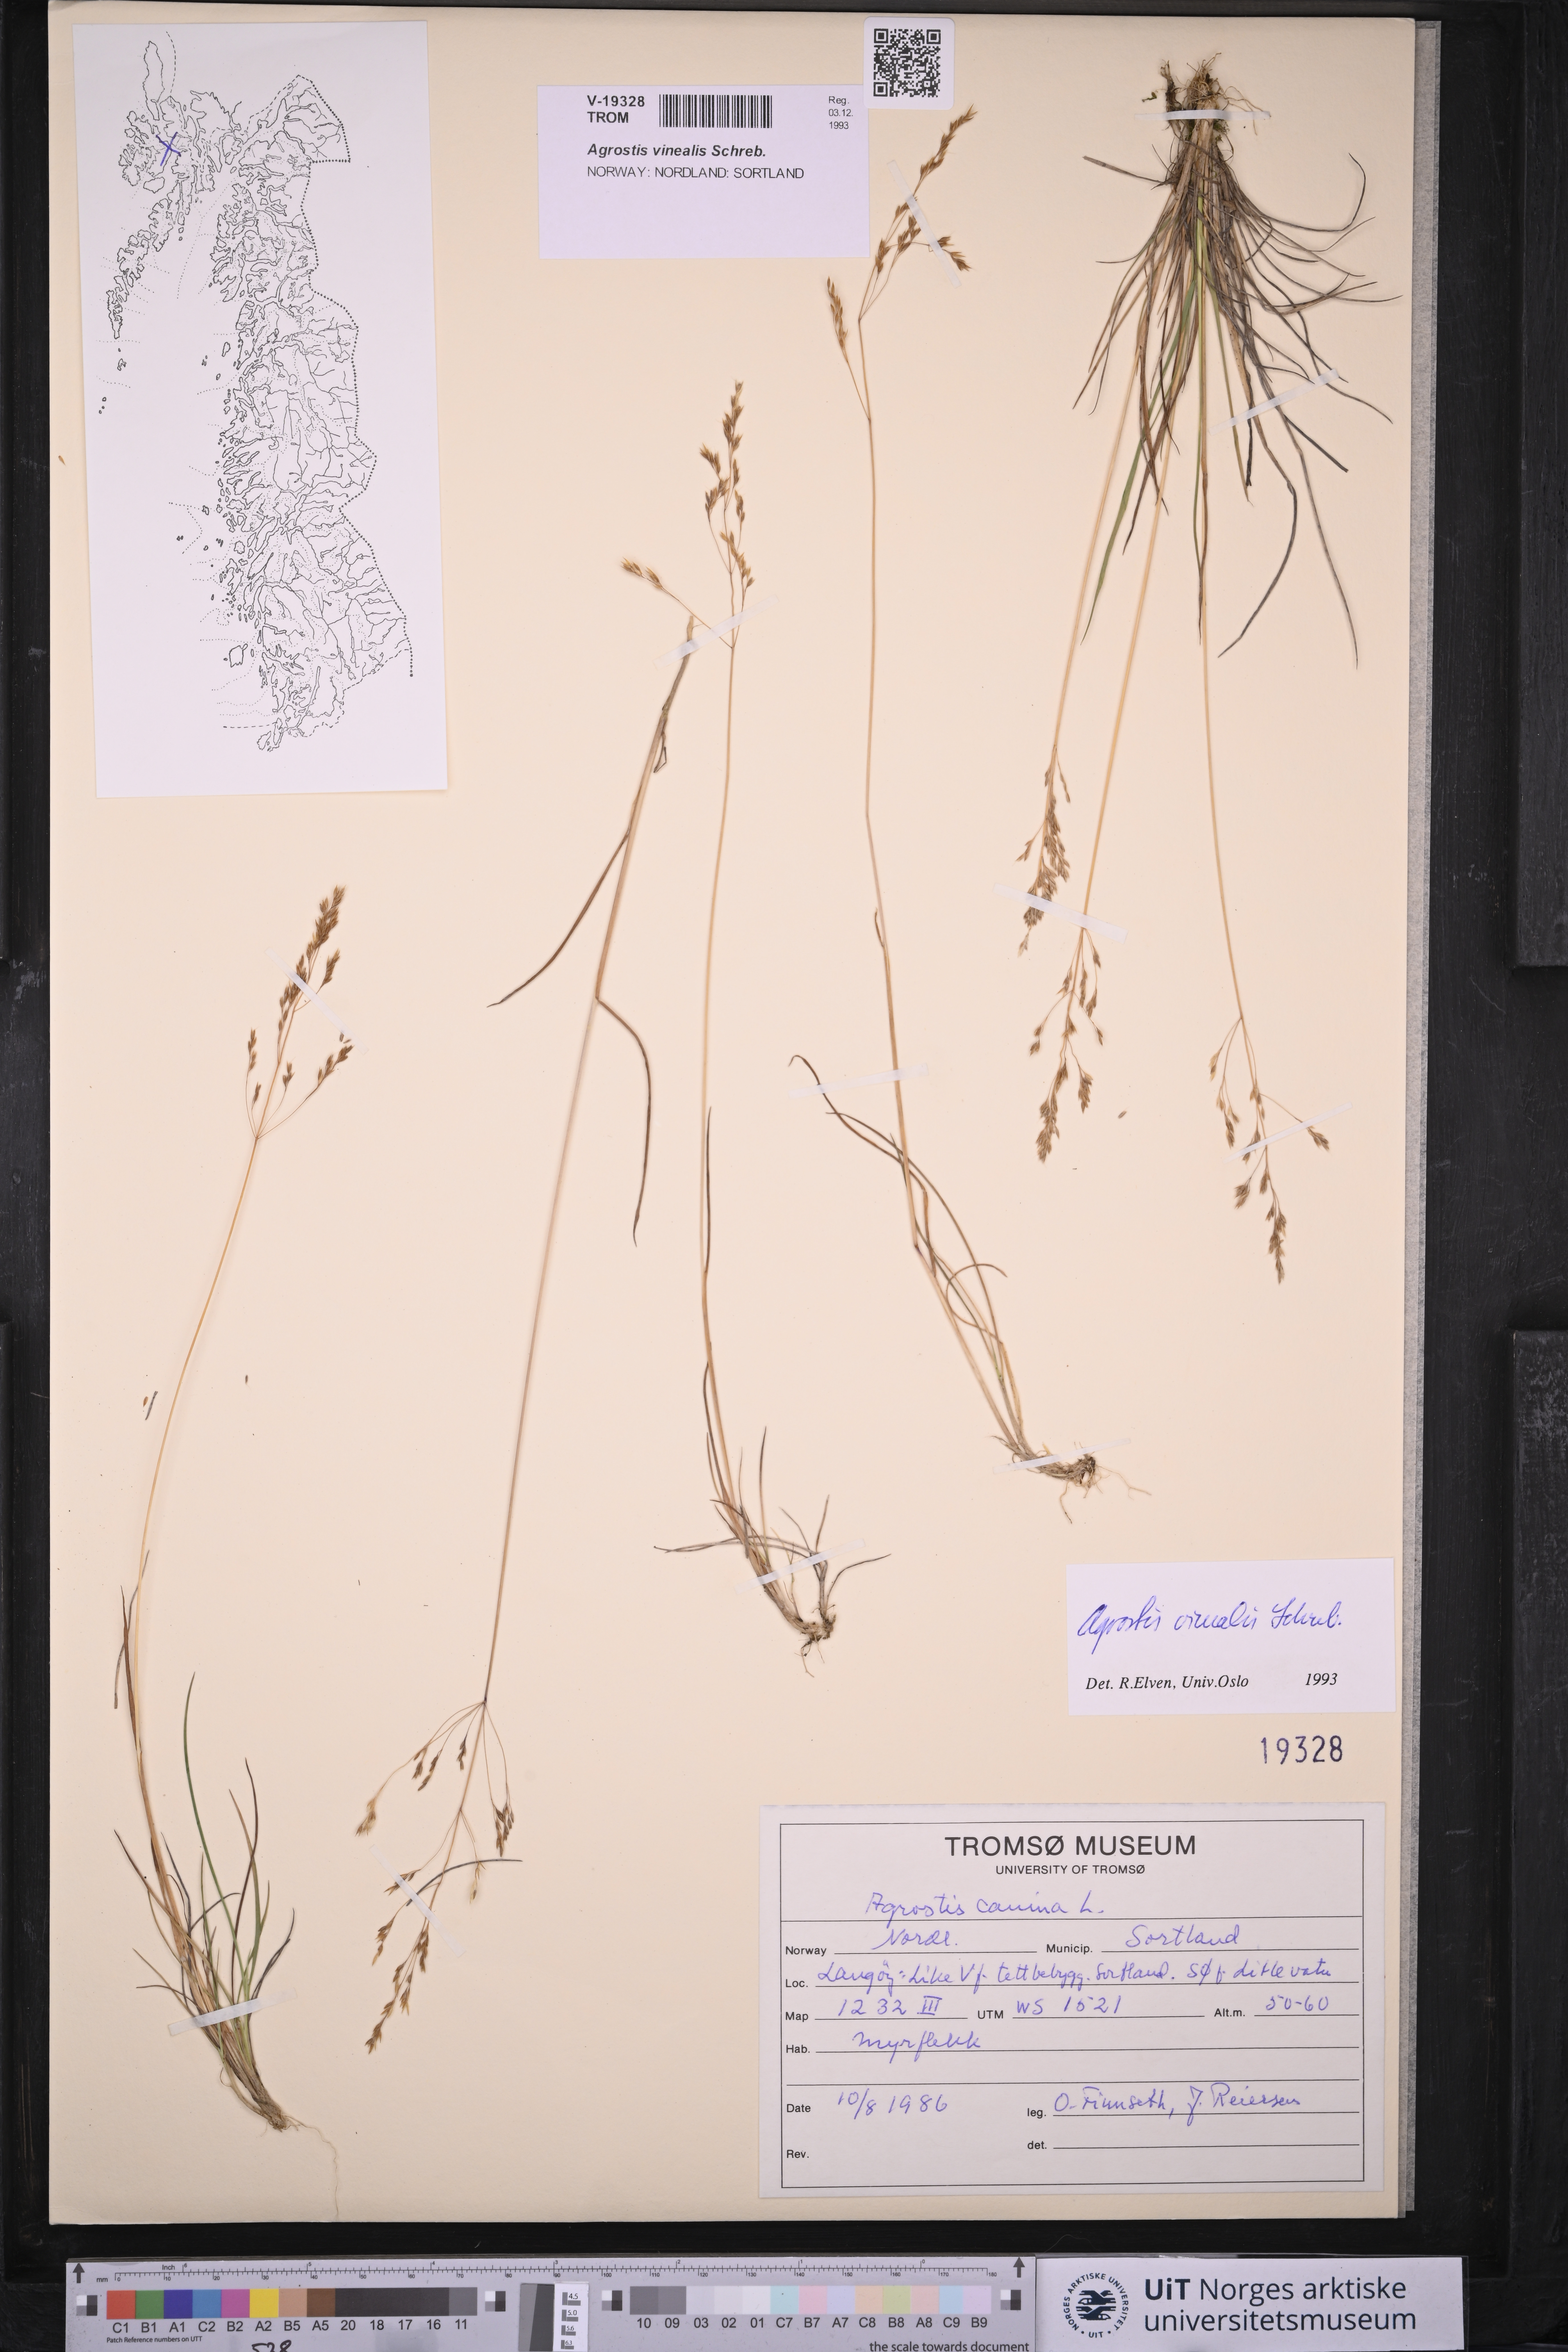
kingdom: Plantae
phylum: Tracheophyta
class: Liliopsida
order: Poales
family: Poaceae
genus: Agrostis
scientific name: Agrostis vinealis
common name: Brown bent
